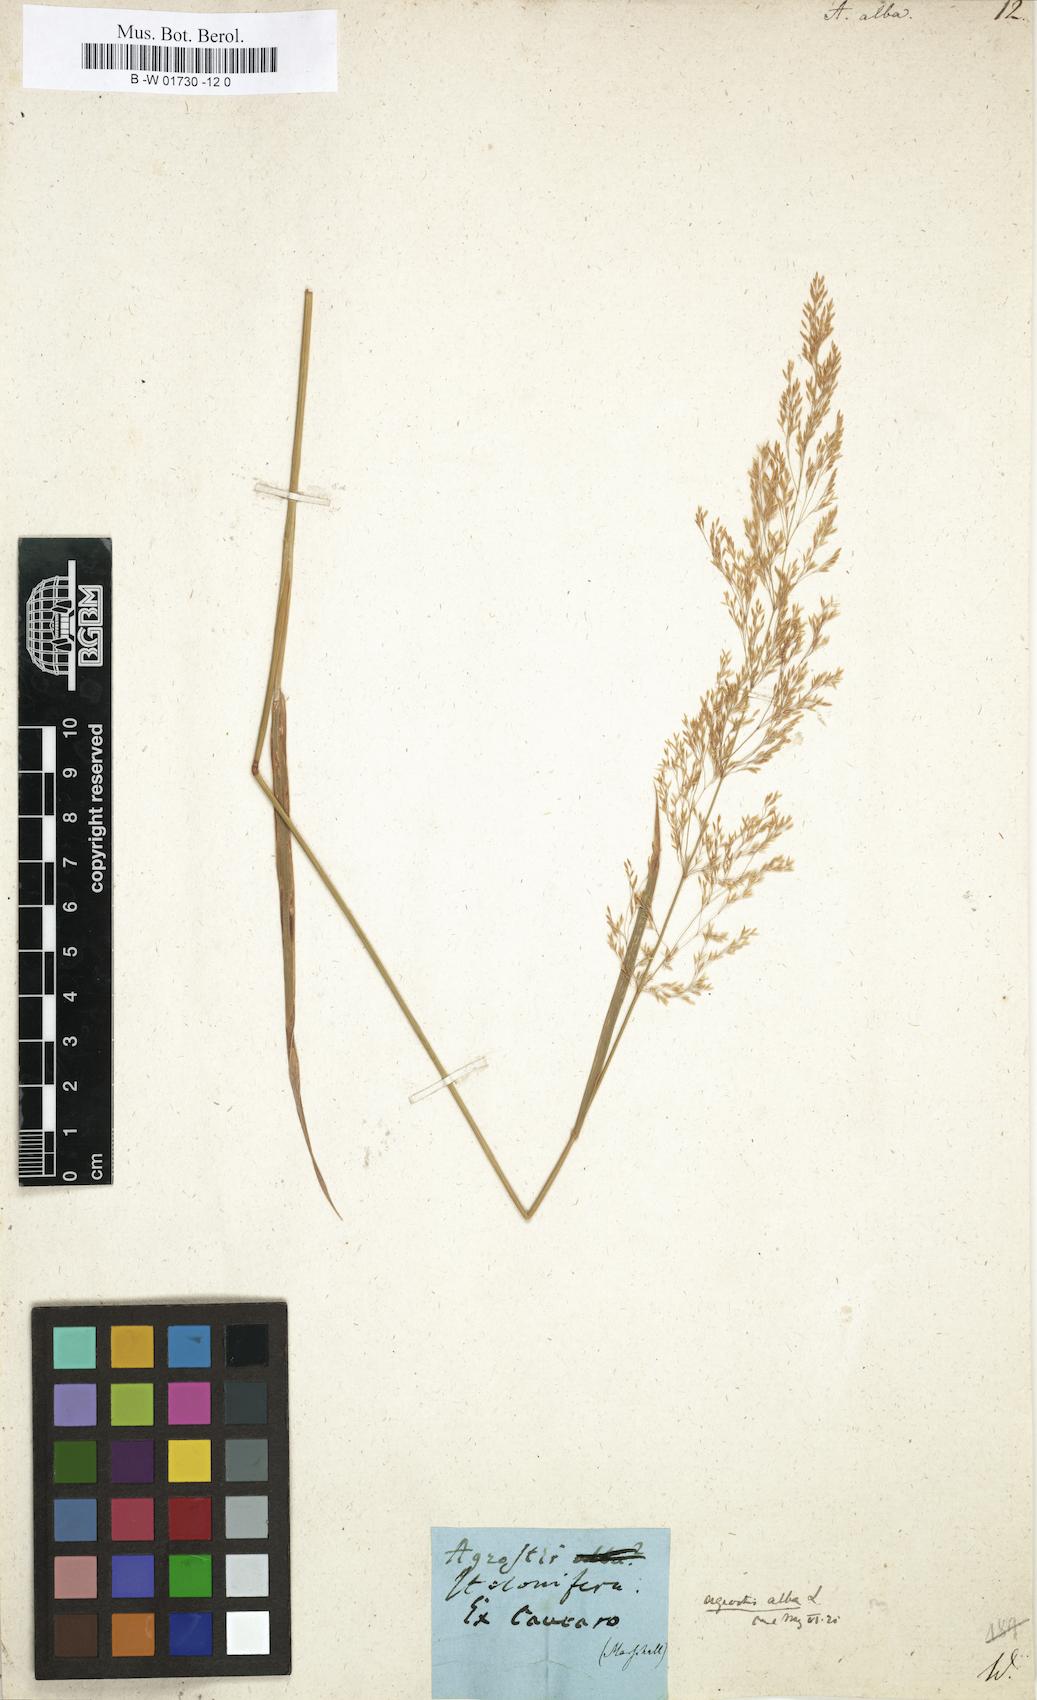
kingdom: Plantae
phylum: Tracheophyta
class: Liliopsida
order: Poales
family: Poaceae
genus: Poa
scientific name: Poa nemoralis
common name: Wood bluegrass
